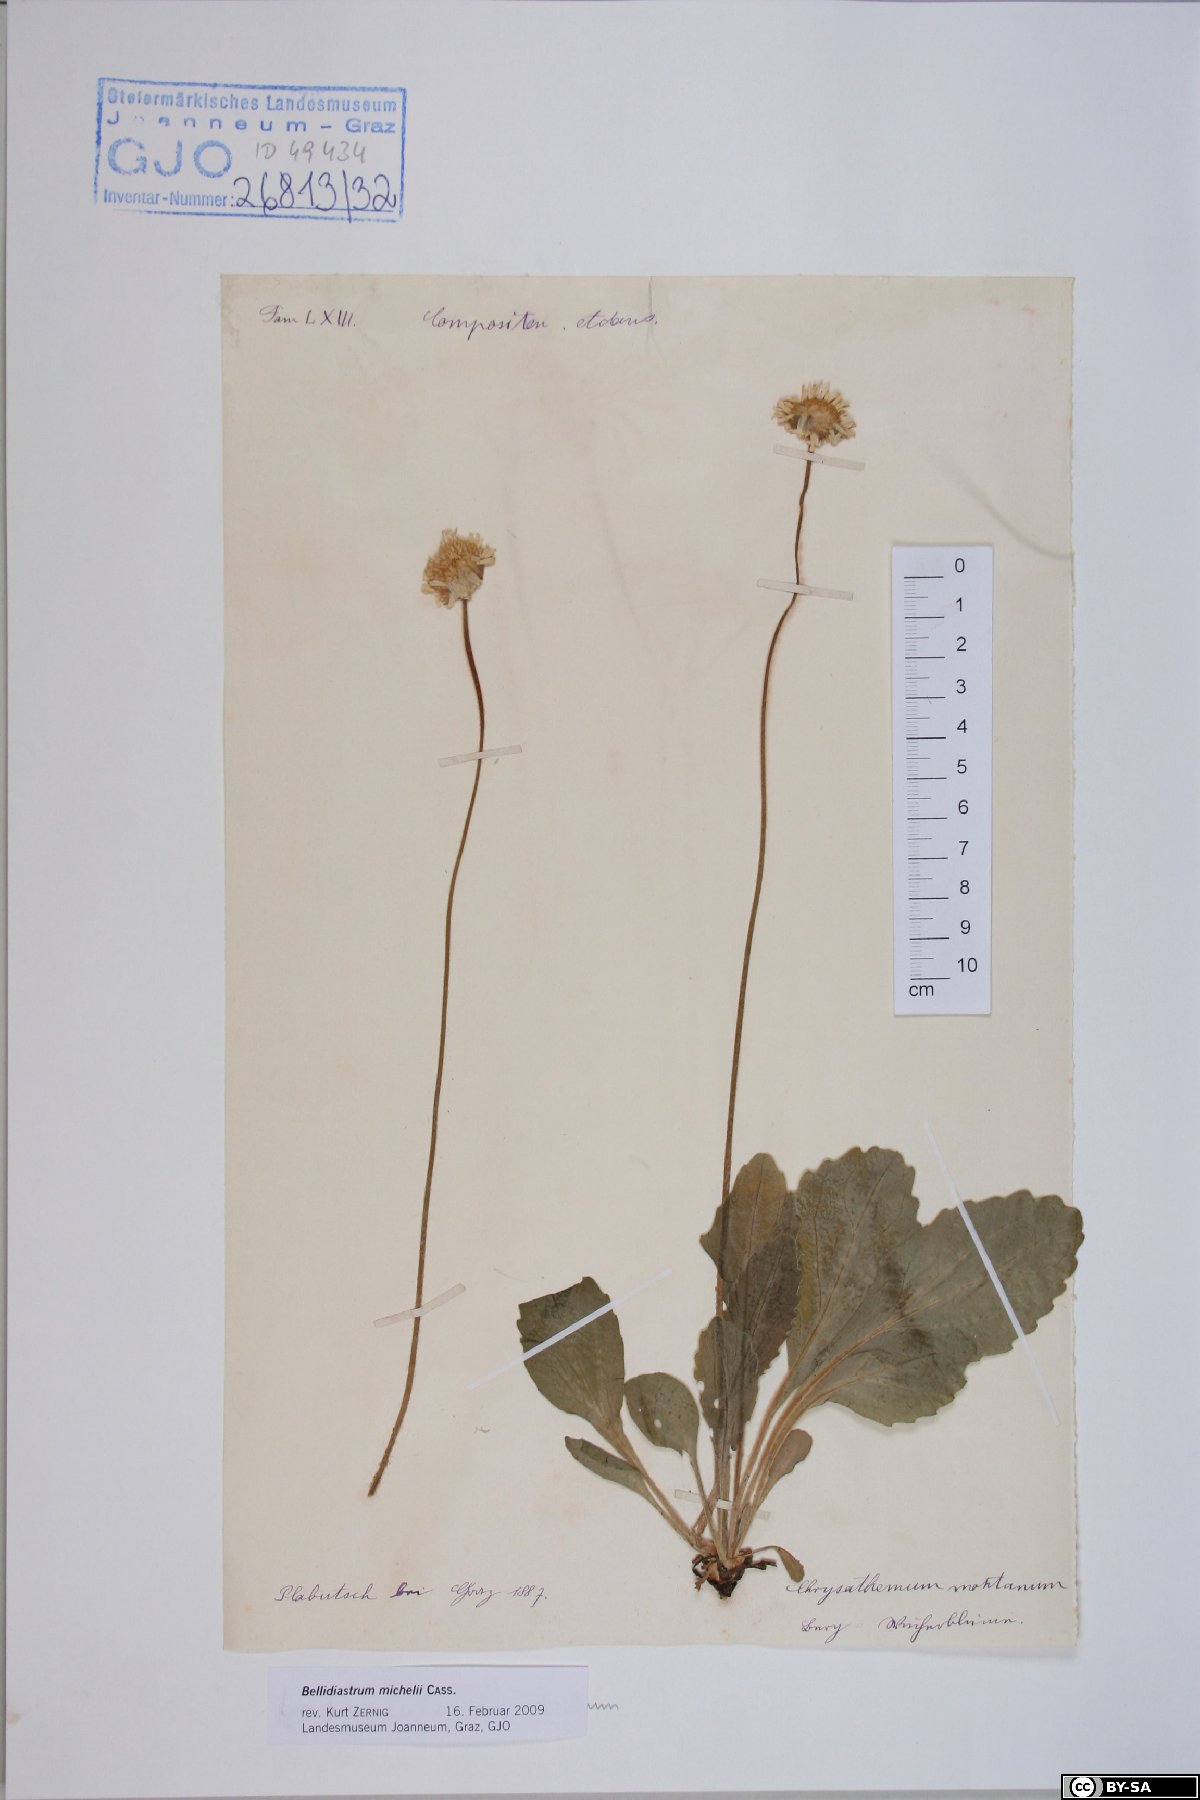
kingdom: Plantae
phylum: Tracheophyta
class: Magnoliopsida
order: Asterales
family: Asteraceae
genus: Bellidiastrum
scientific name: Bellidiastrum michelii
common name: Daisy-star aster
